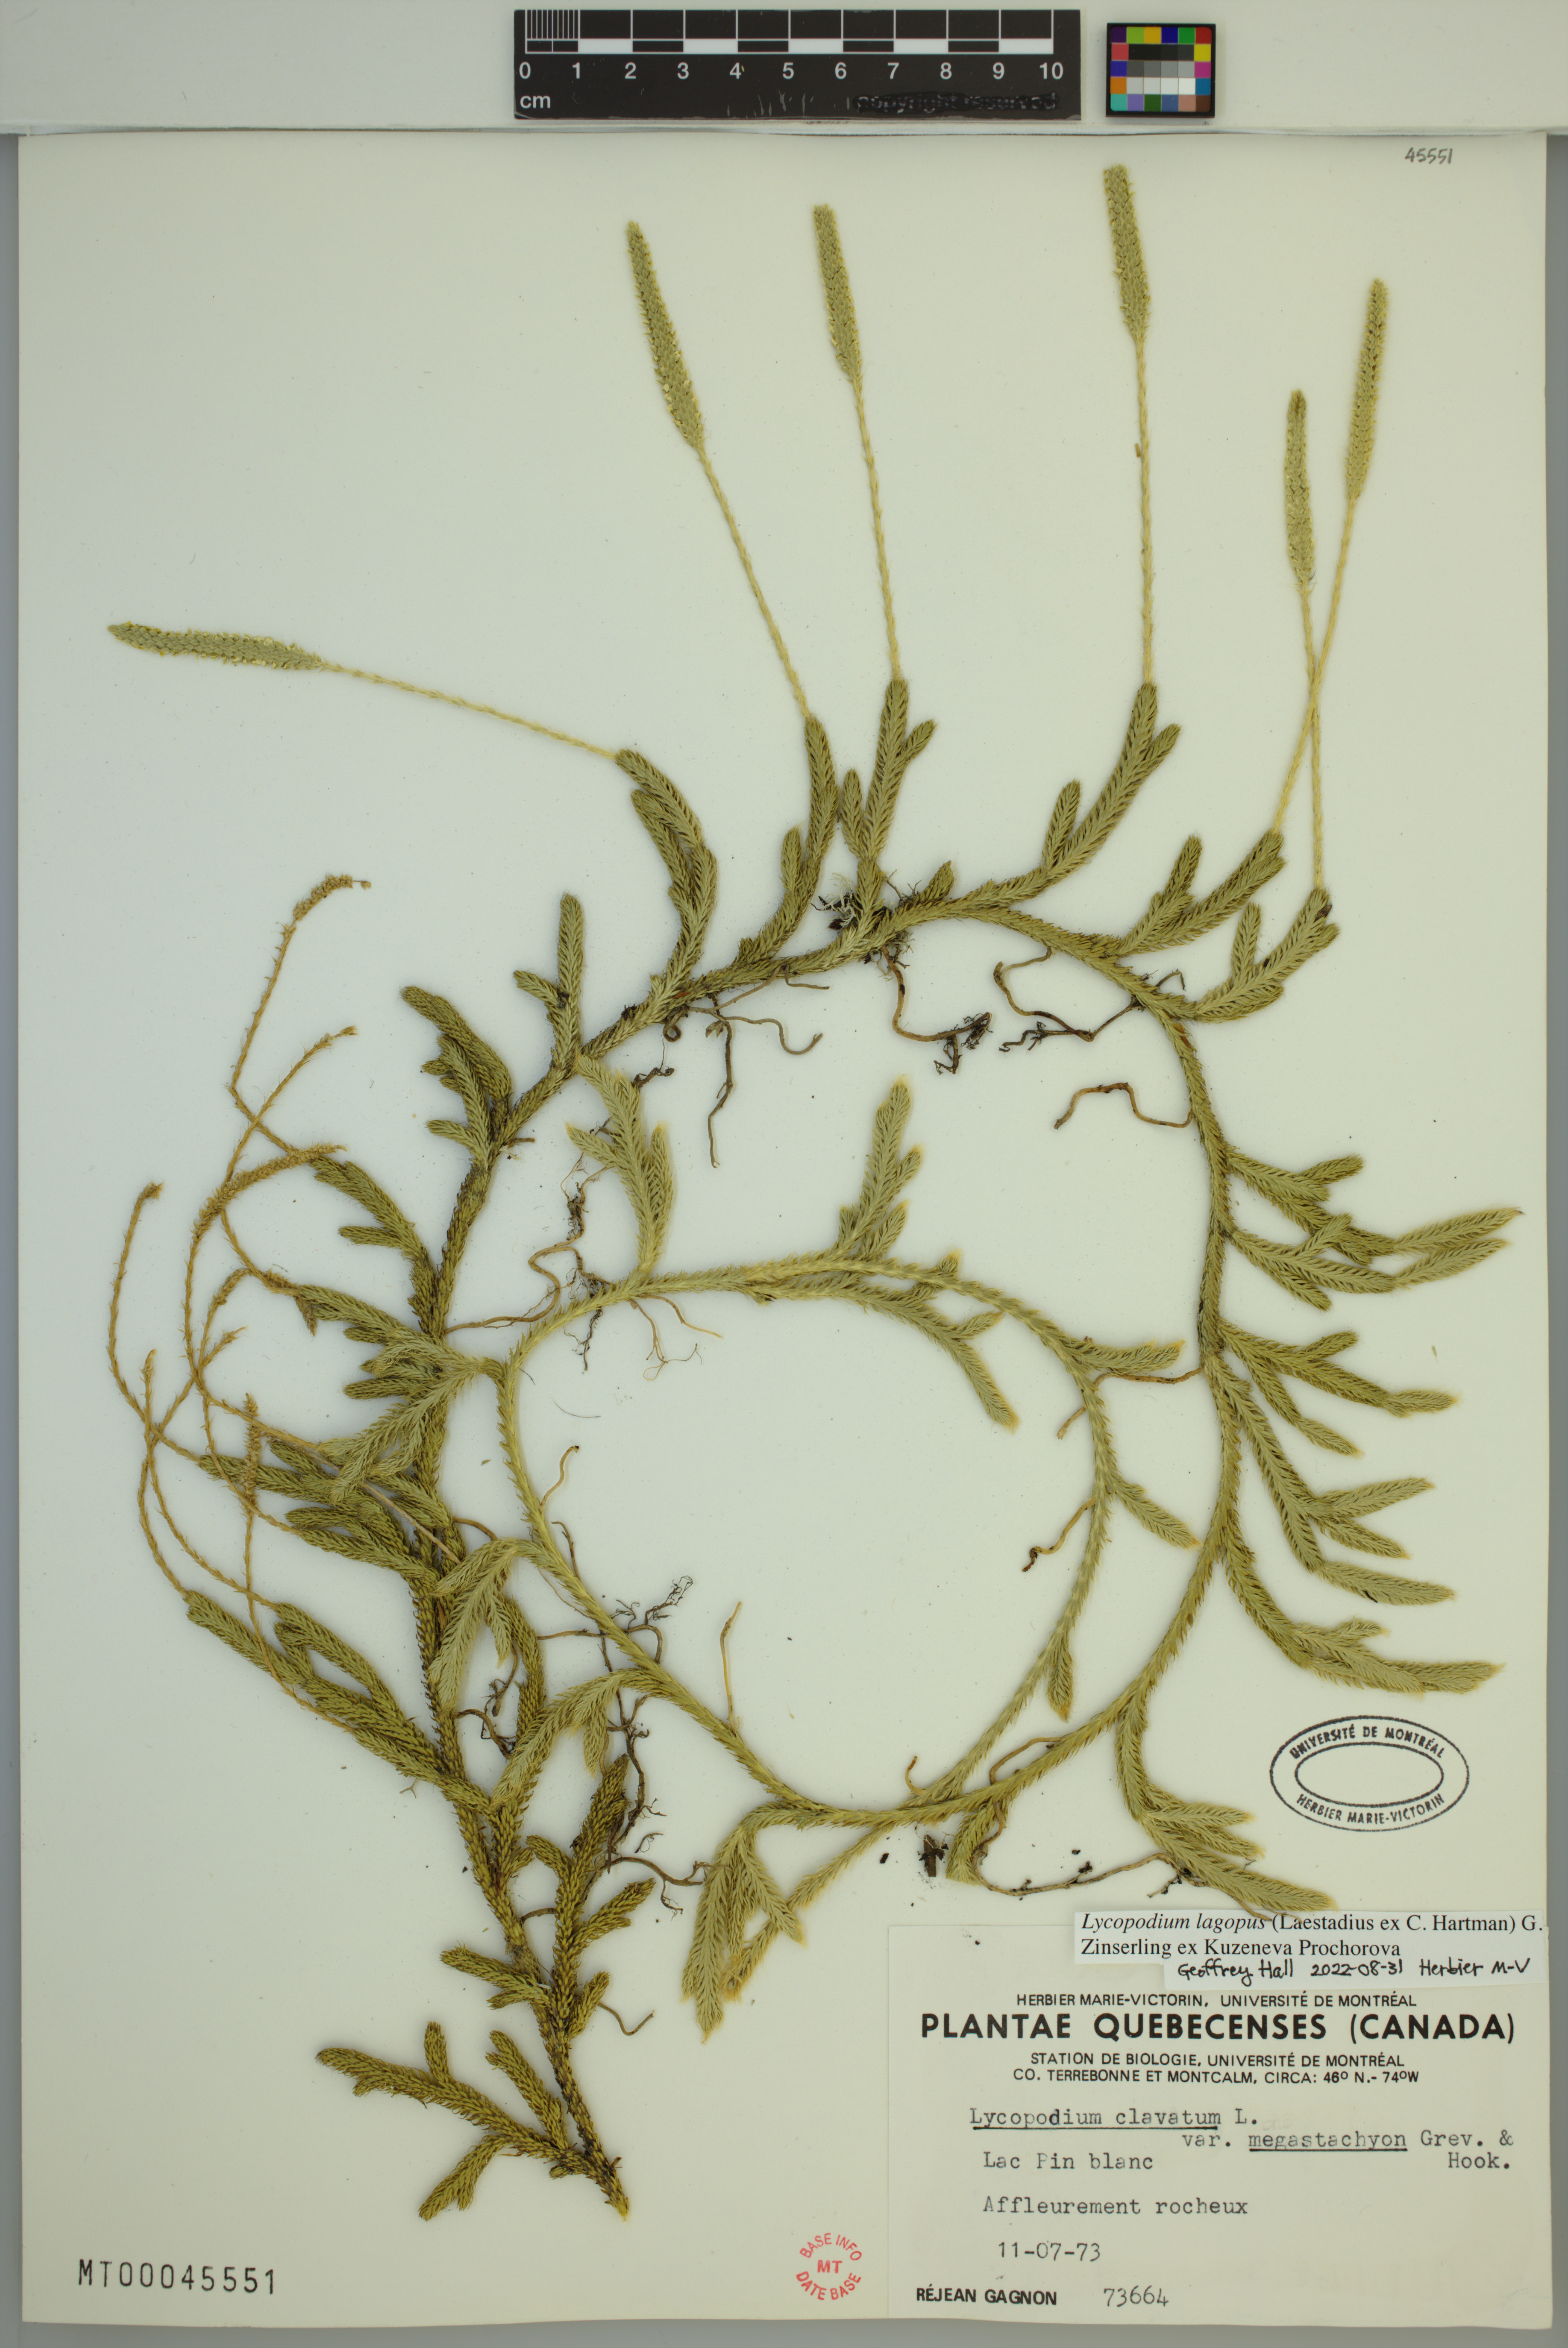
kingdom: Plantae
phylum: Tracheophyta
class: Lycopodiopsida
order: Lycopodiales
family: Lycopodiaceae
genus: Lycopodium
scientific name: Lycopodium lagopus
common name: One-cone clubmoss
